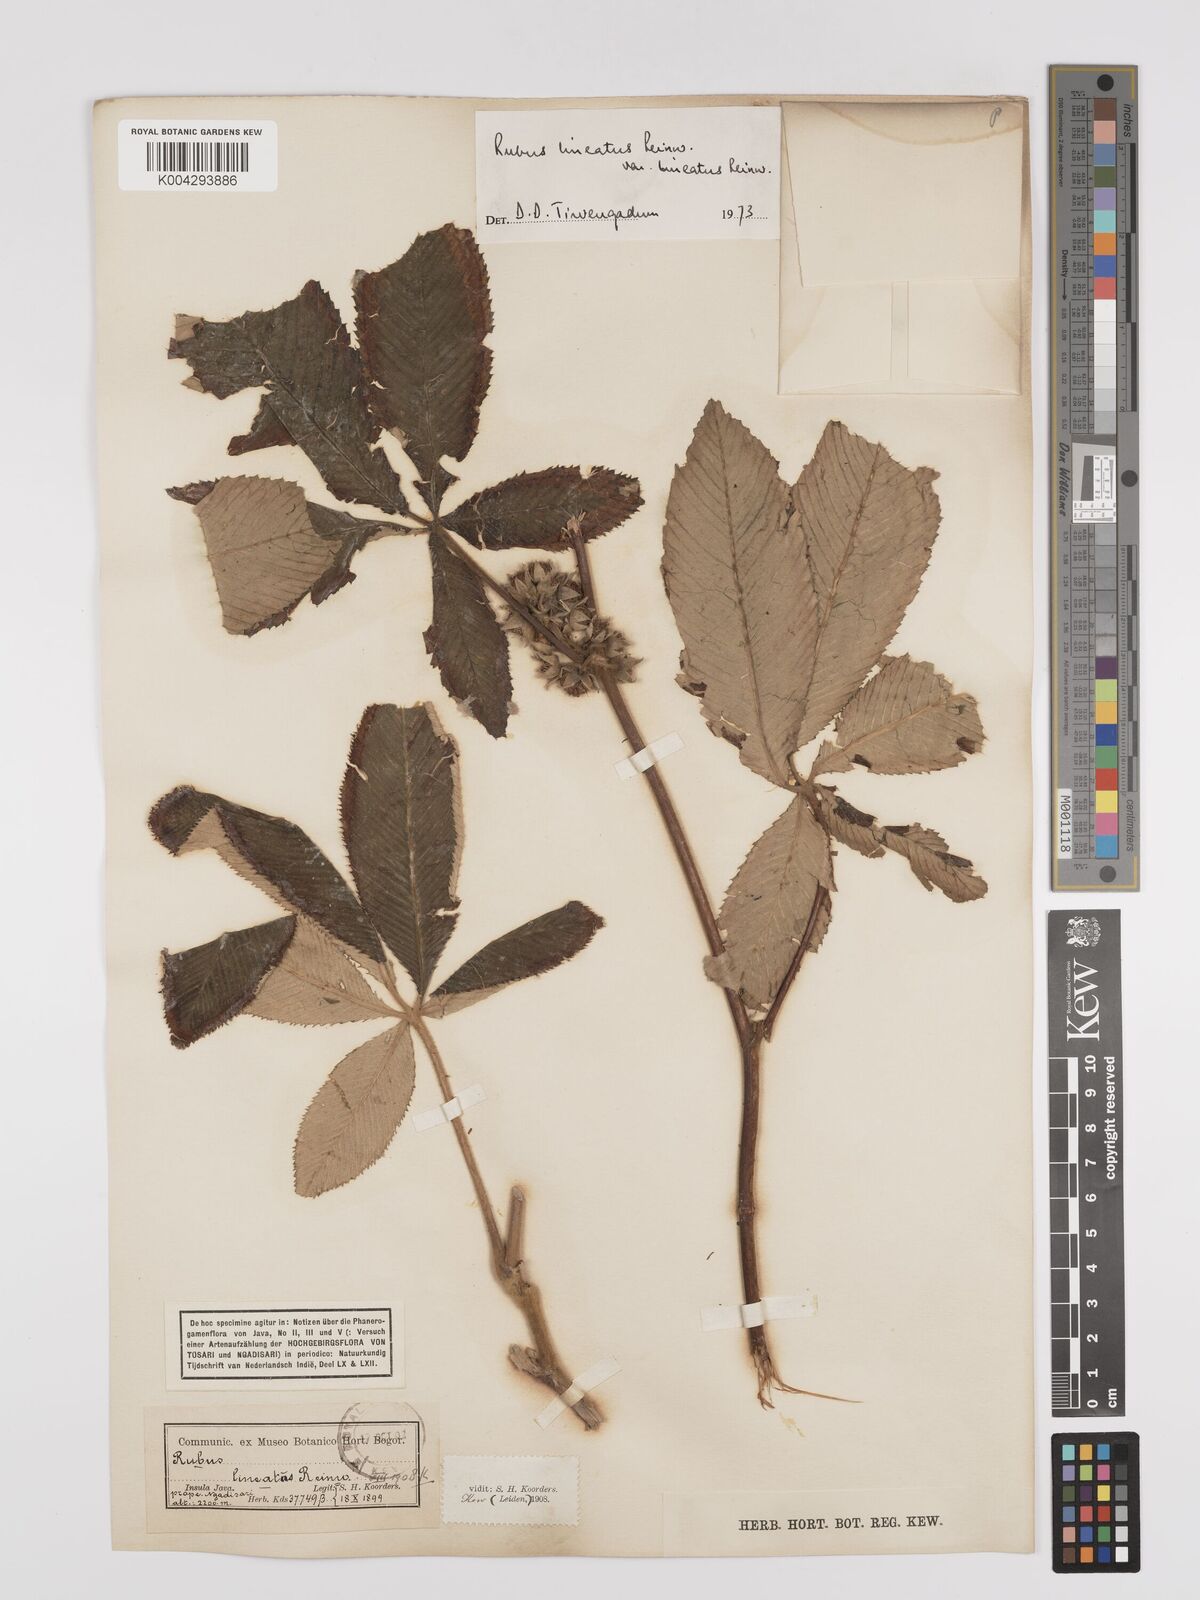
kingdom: Plantae
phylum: Tracheophyta
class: Magnoliopsida
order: Rosales
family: Rosaceae
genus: Rubus
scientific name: Rubus lineatus
